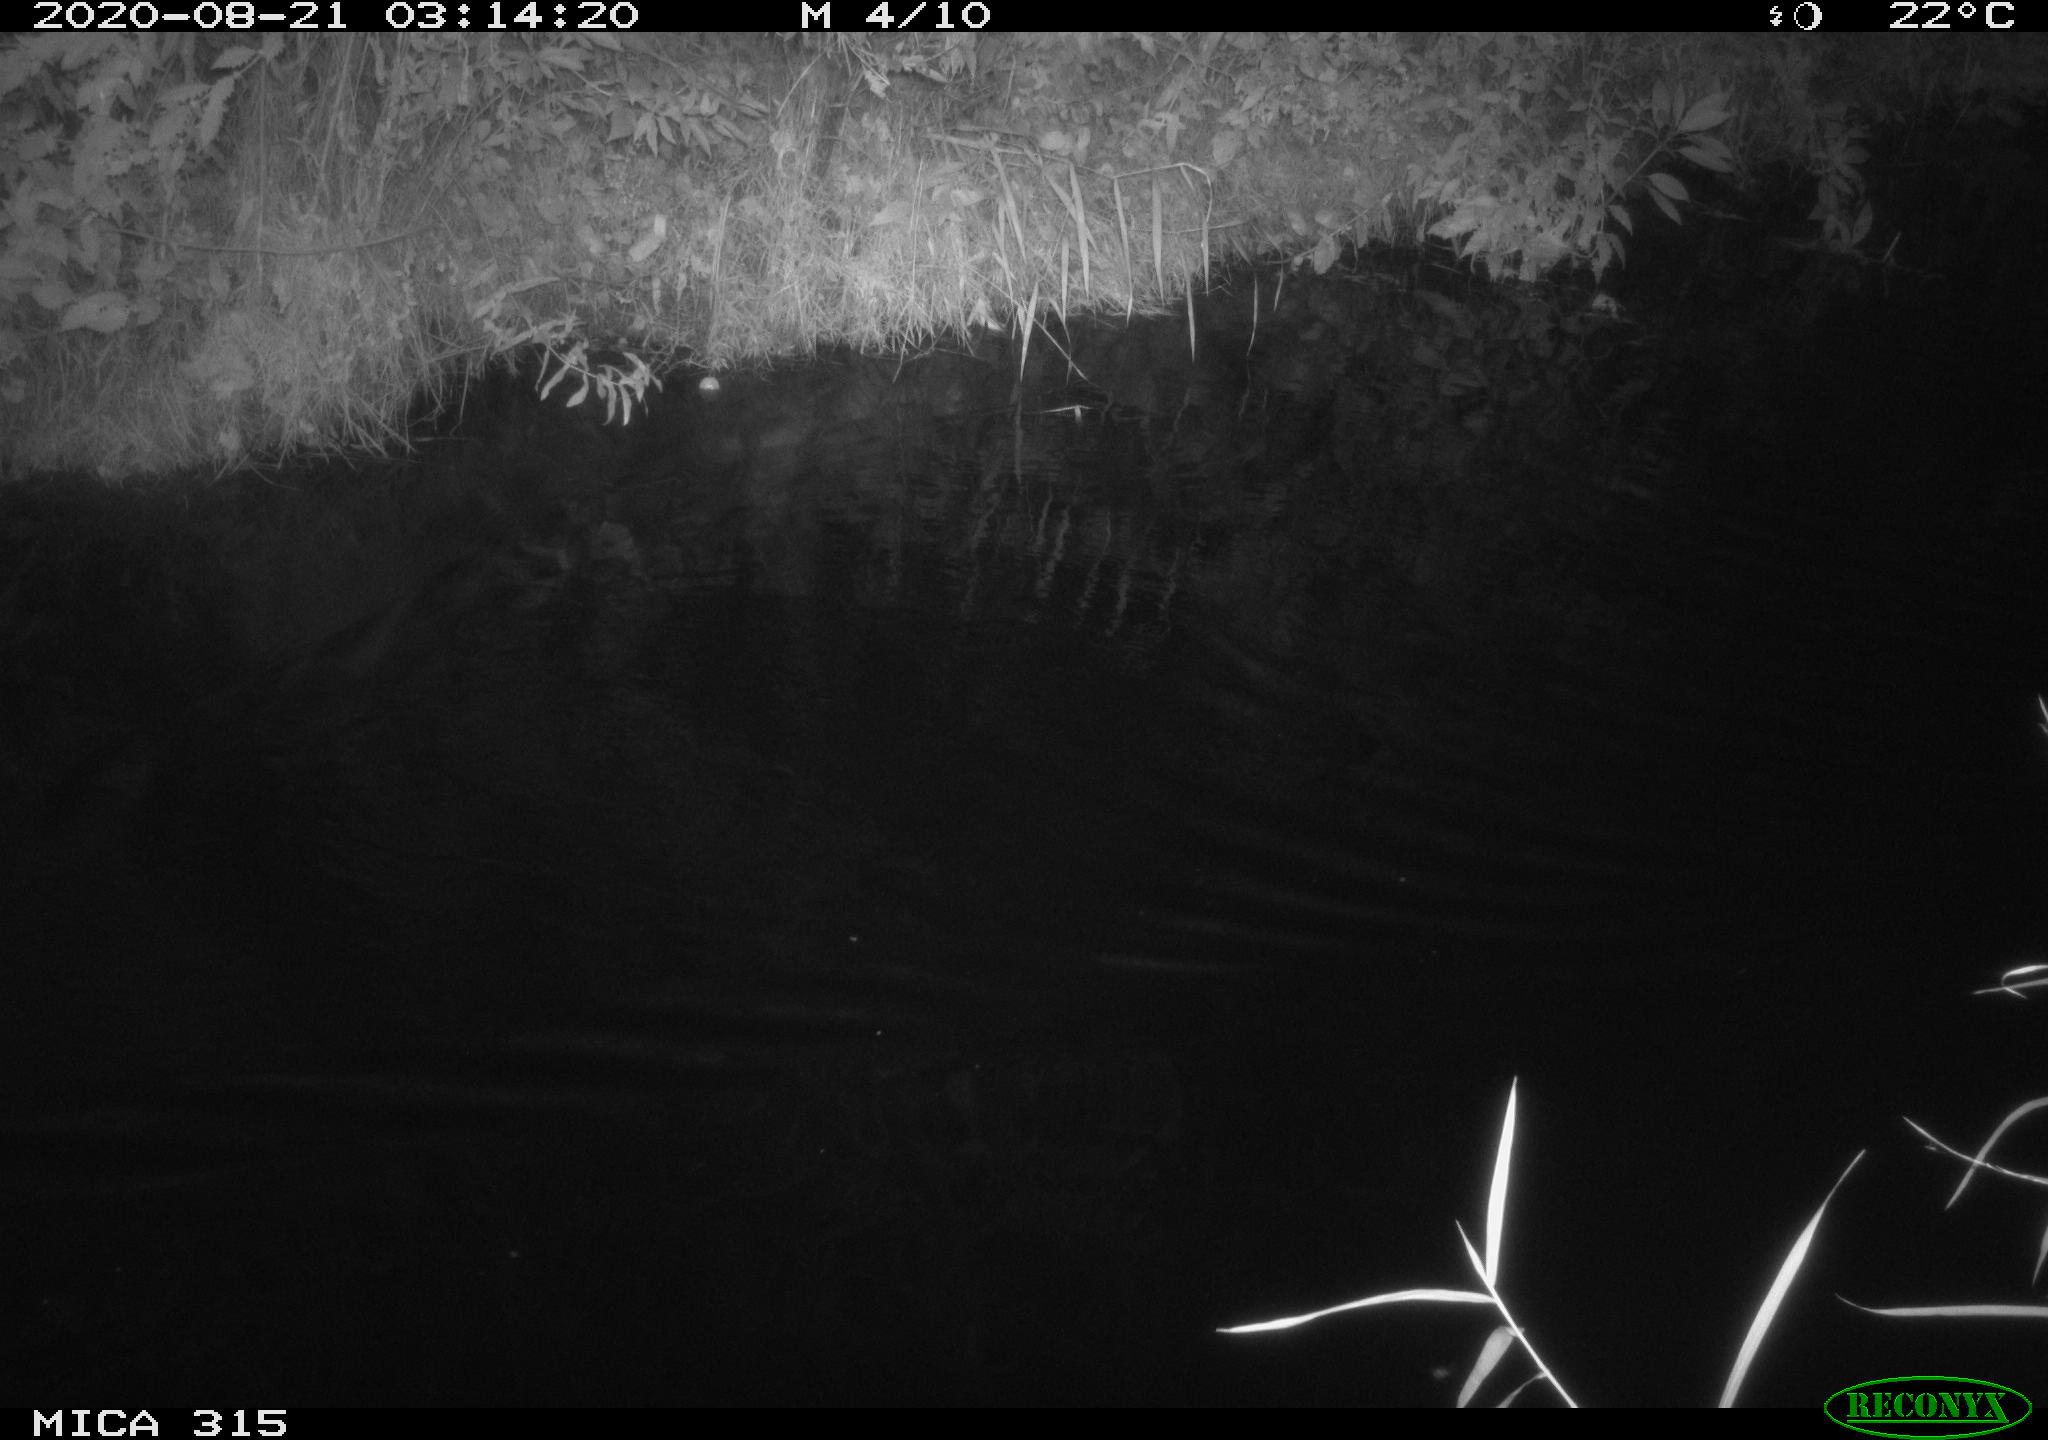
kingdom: Animalia
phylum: Chordata
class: Aves
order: Anseriformes
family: Anatidae
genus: Anas
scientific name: Anas platyrhynchos
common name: Mallard
